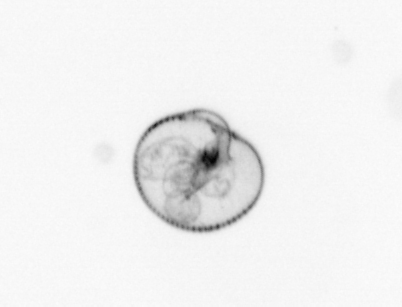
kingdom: Chromista
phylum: Myzozoa
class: Dinophyceae
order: Noctilucales
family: Noctilucaceae
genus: Noctiluca
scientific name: Noctiluca scintillans
